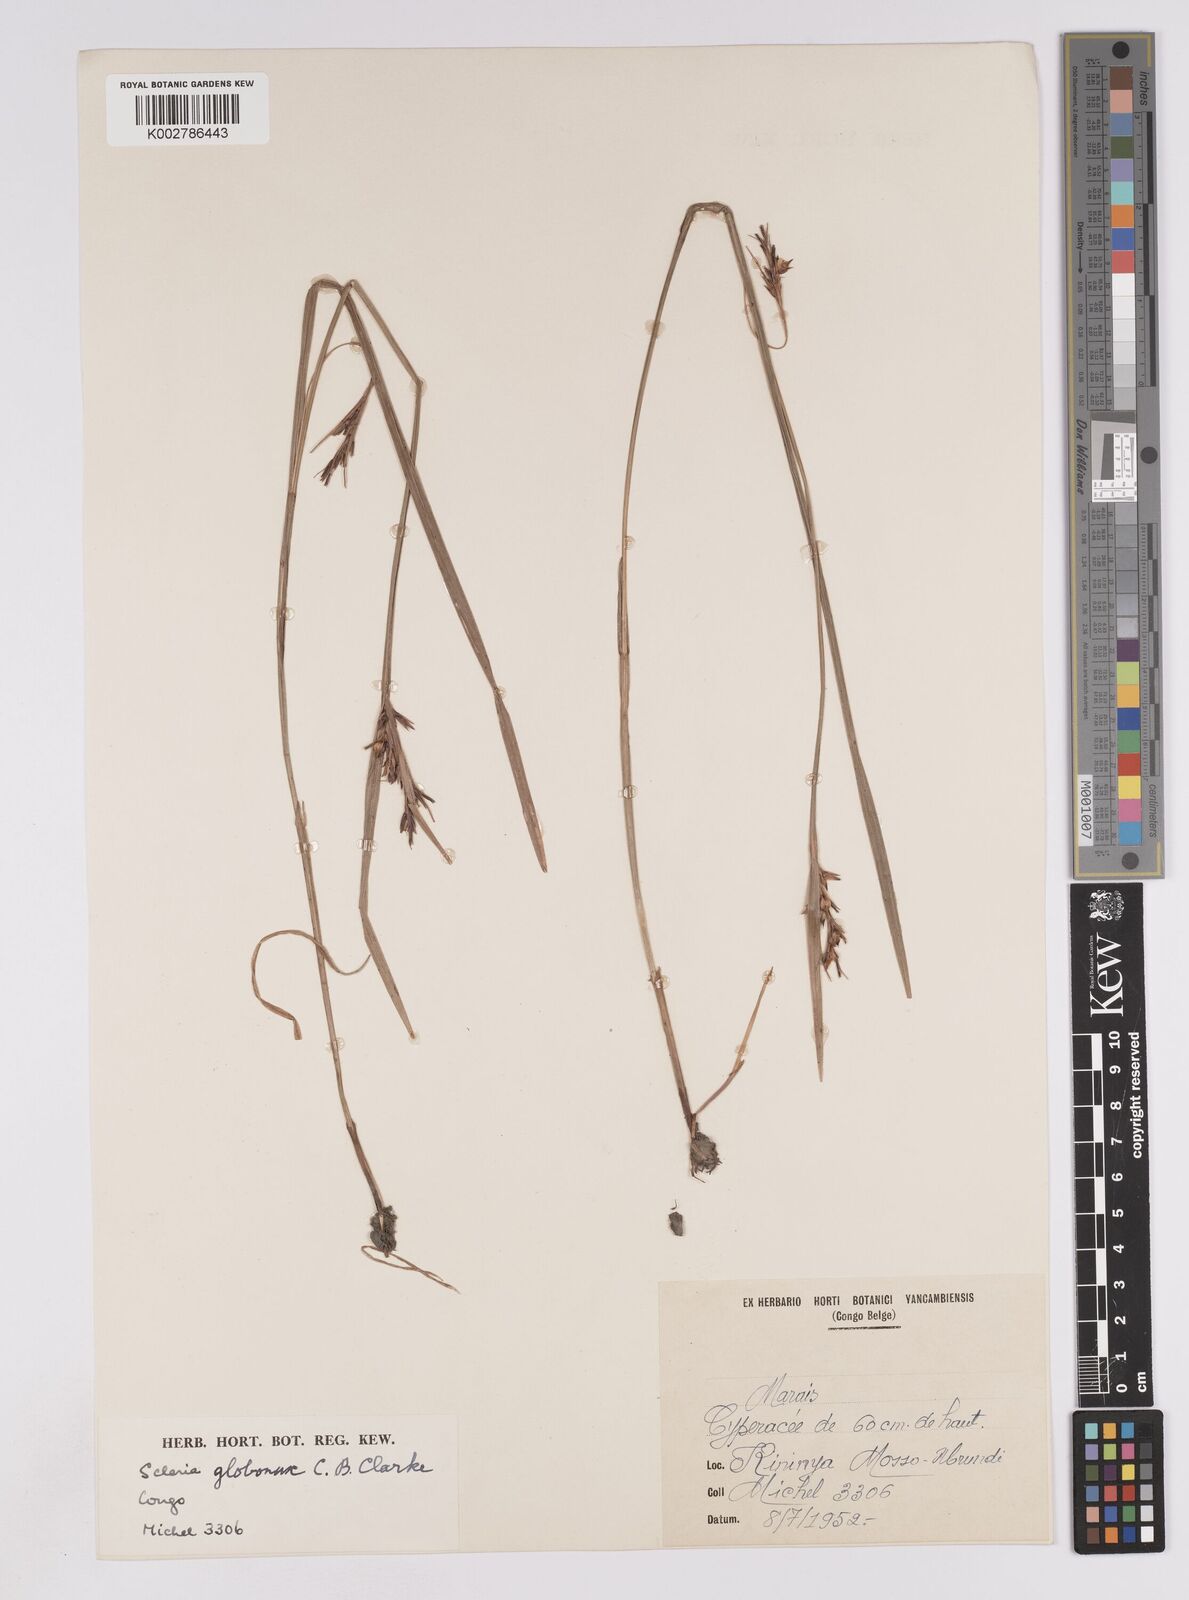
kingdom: Plantae
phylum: Tracheophyta
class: Liliopsida
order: Poales
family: Cyperaceae
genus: Scleria
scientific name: Scleria globonux
